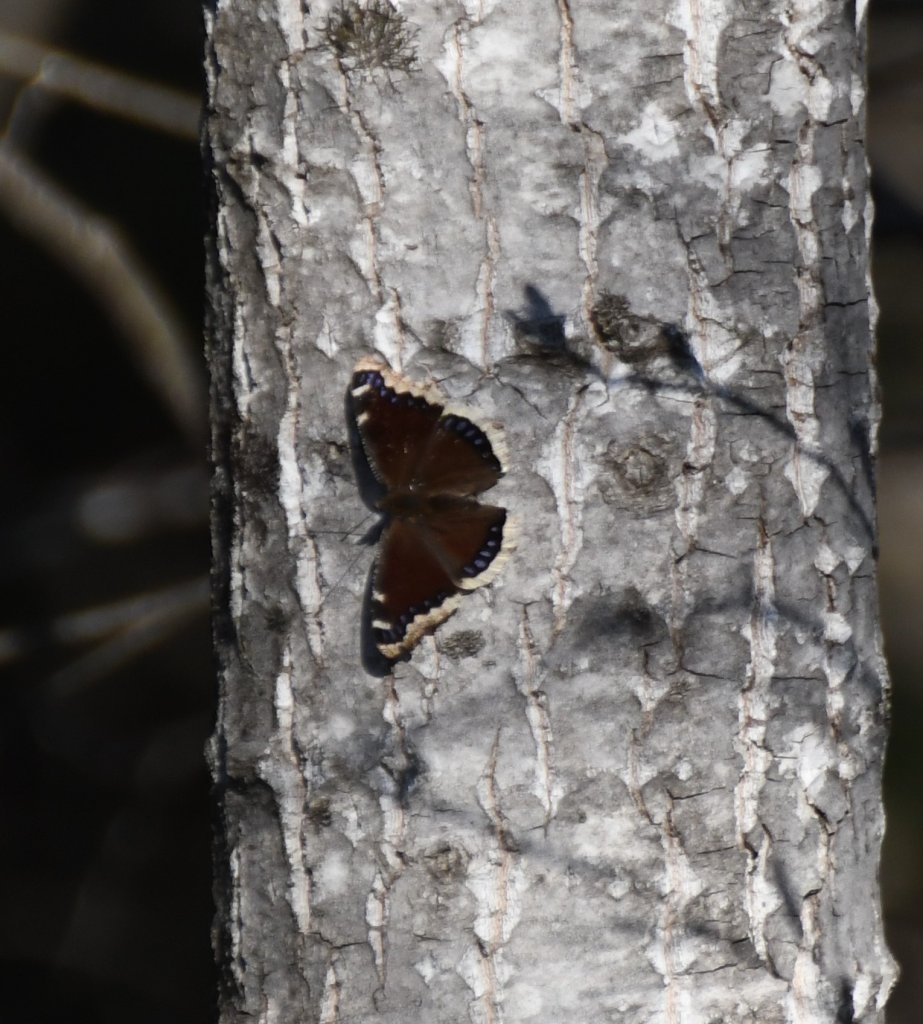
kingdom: Animalia
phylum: Arthropoda
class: Insecta
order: Lepidoptera
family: Nymphalidae
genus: Nymphalis
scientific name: Nymphalis antiopa
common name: Mourning Cloak
